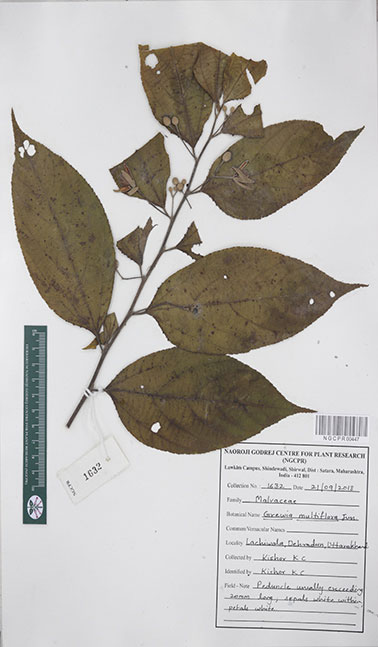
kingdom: Plantae
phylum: Tracheophyta
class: Magnoliopsida
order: Malvales
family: Malvaceae
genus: Grewia
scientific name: Grewia multiflora
